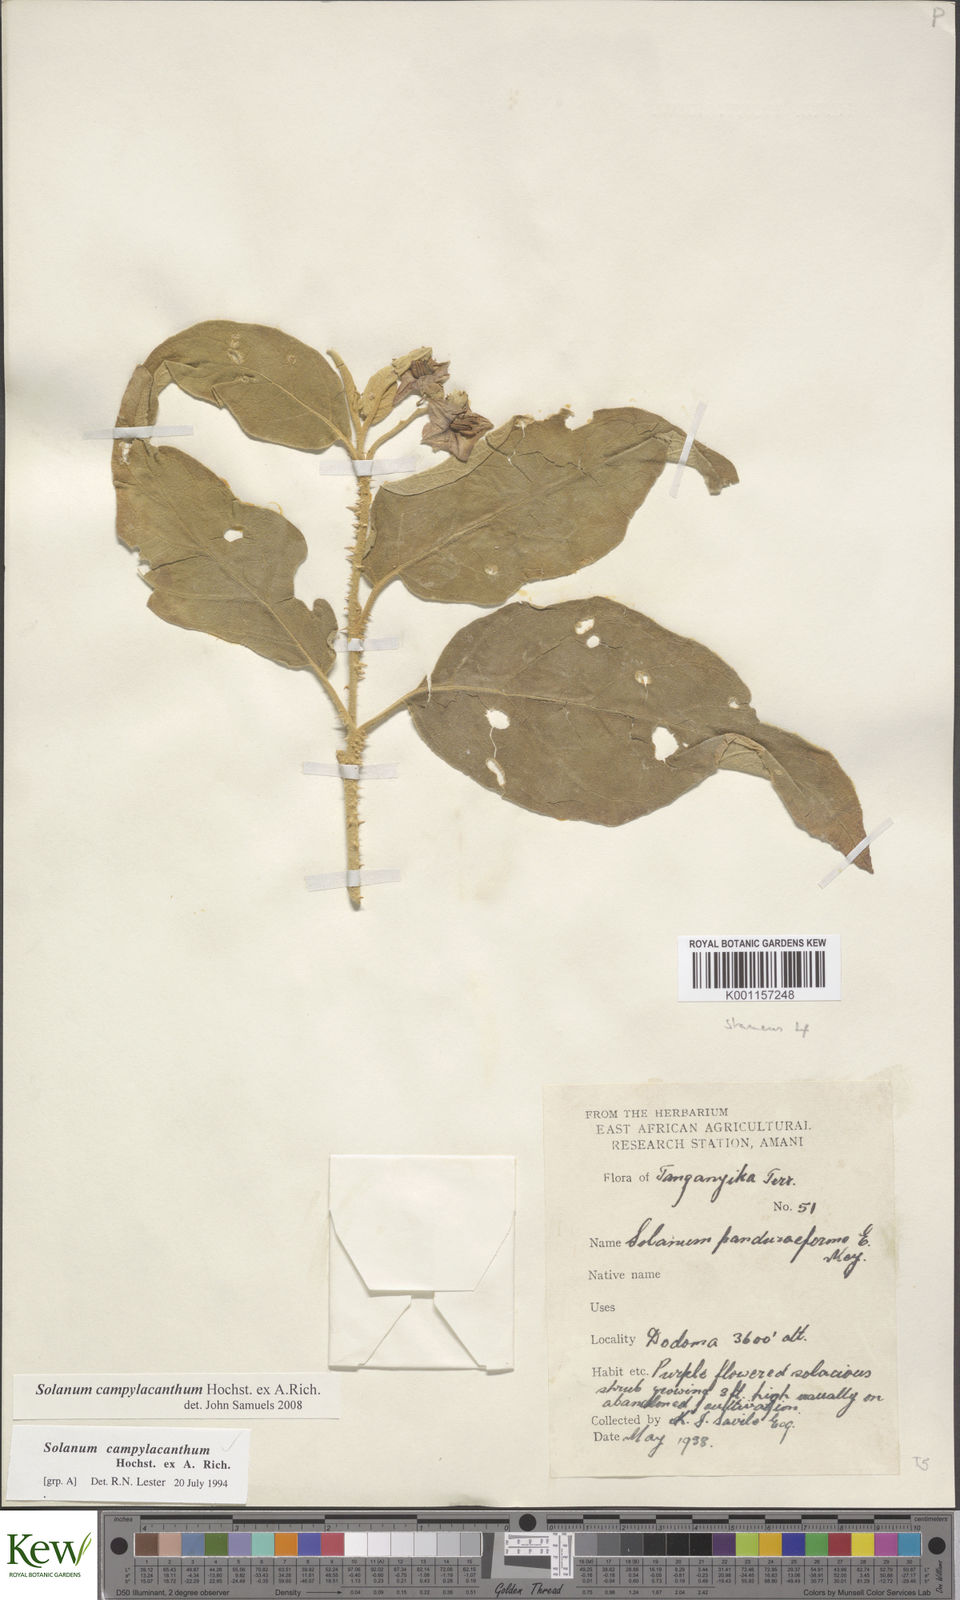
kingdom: Plantae
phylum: Tracheophyta
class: Magnoliopsida
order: Solanales
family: Solanaceae
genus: Solanum
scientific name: Solanum campylacanthum
